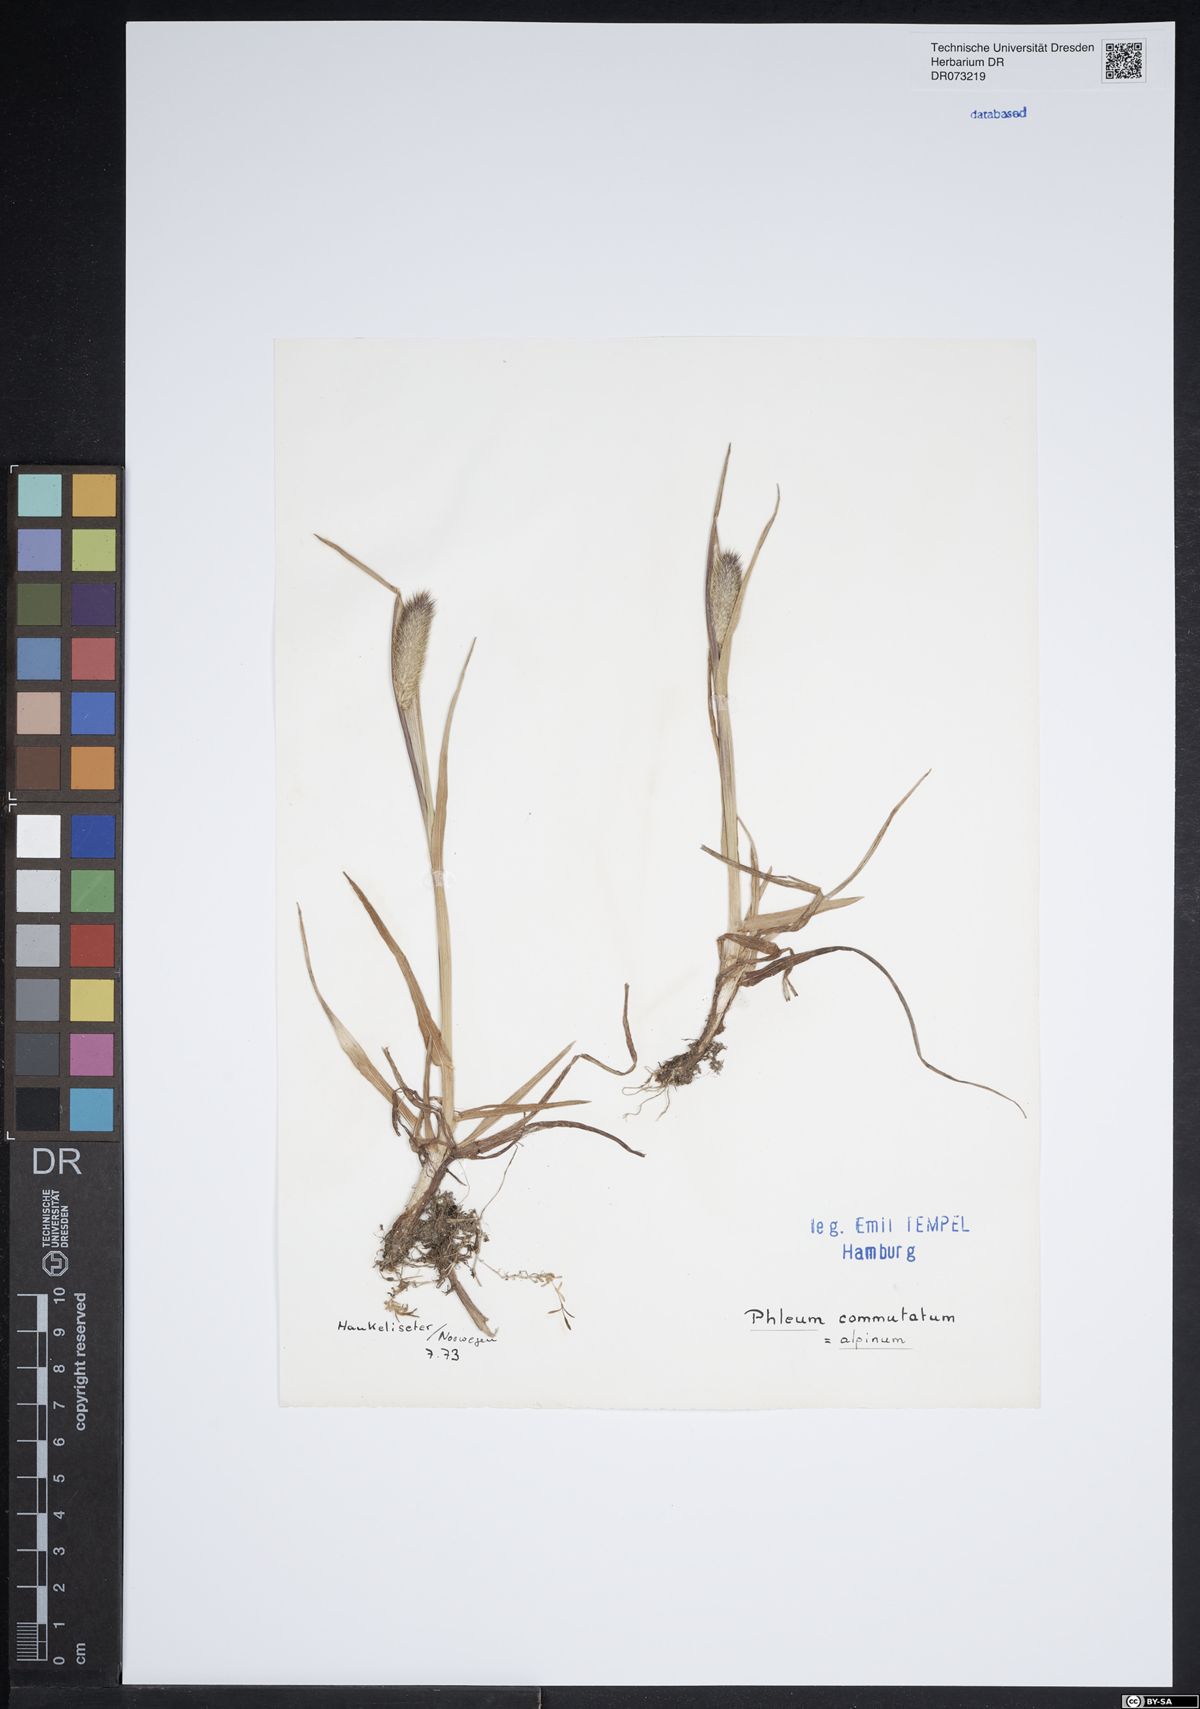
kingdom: Plantae
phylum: Tracheophyta
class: Liliopsida
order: Poales
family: Poaceae
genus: Phleum
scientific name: Phleum alpinum
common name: Alpine cat's-tail
